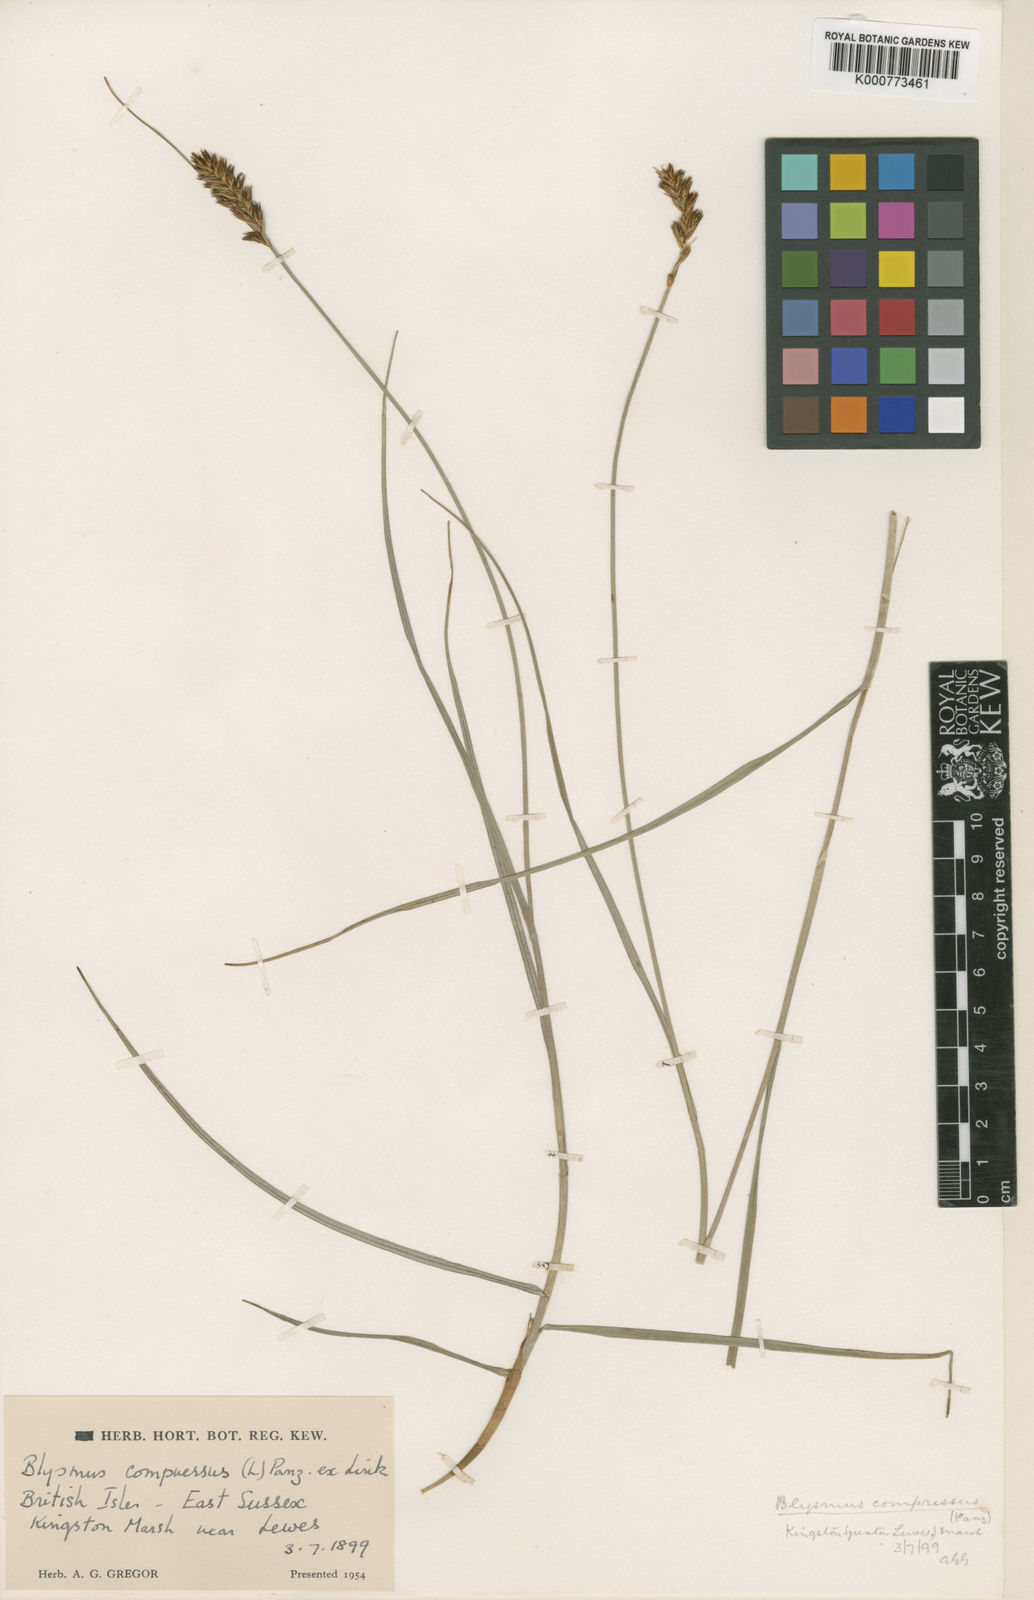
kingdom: Plantae
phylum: Tracheophyta
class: Liliopsida
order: Poales
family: Cyperaceae
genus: Blysmus
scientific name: Blysmus compressus
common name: Flat-sedge
